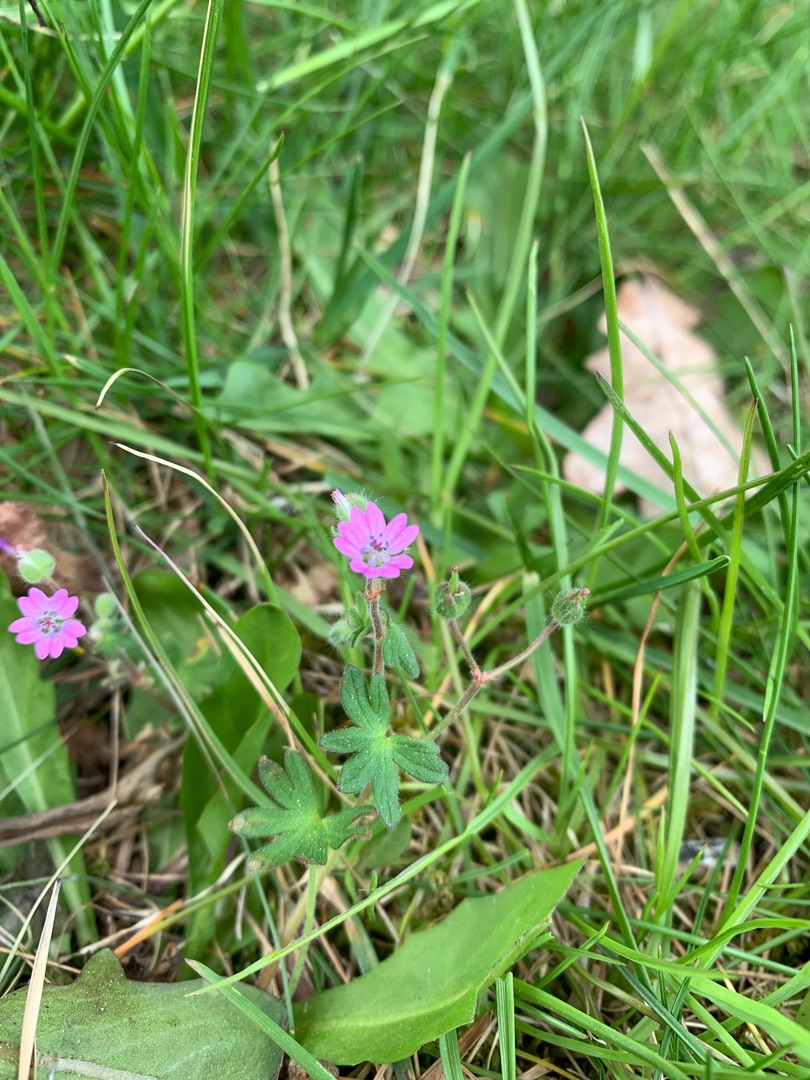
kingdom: Plantae
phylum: Tracheophyta
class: Magnoliopsida
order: Geraniales
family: Geraniaceae
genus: Geranium
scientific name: Geranium molle
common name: Blød storkenæb
